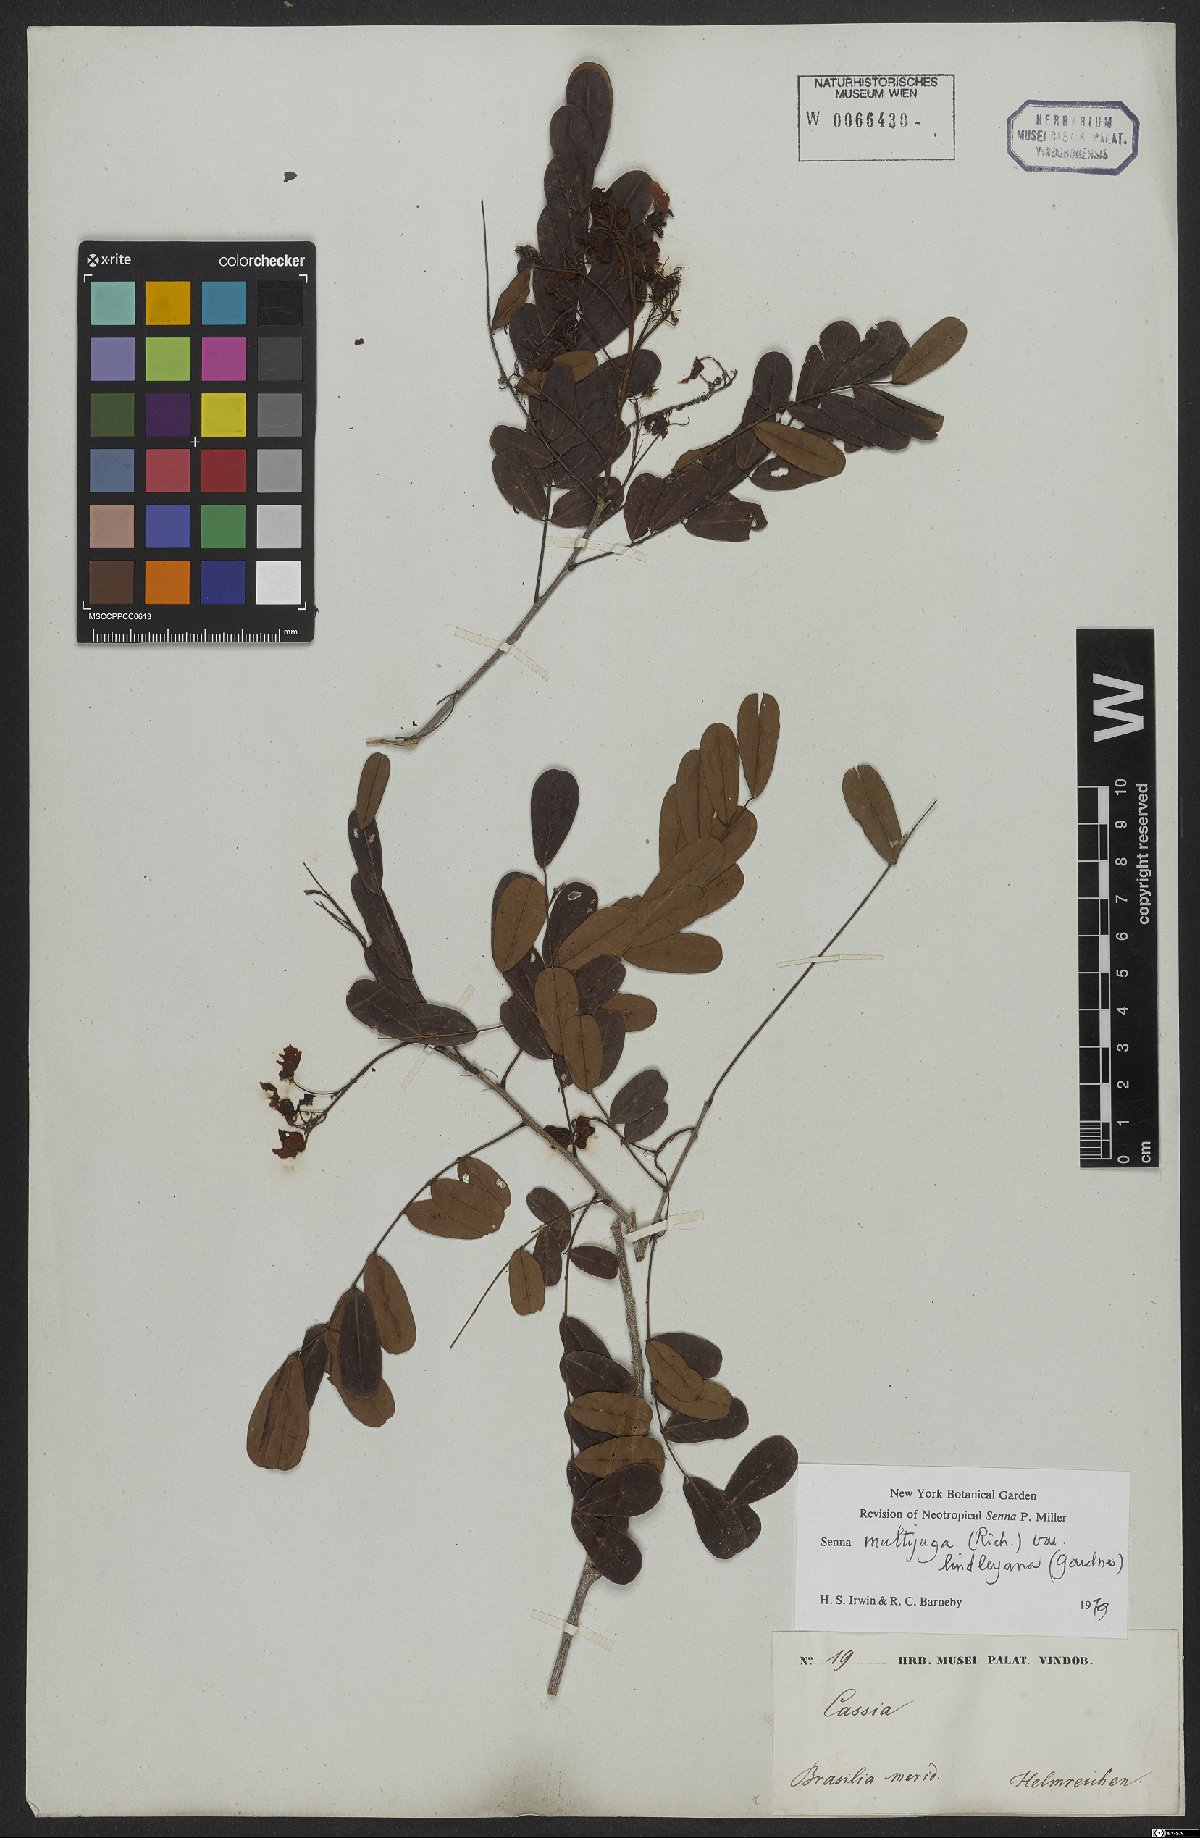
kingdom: Plantae
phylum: Tracheophyta
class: Magnoliopsida
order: Fabales
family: Fabaceae
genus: Senna
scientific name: Senna multijuga
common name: False sicklepod
